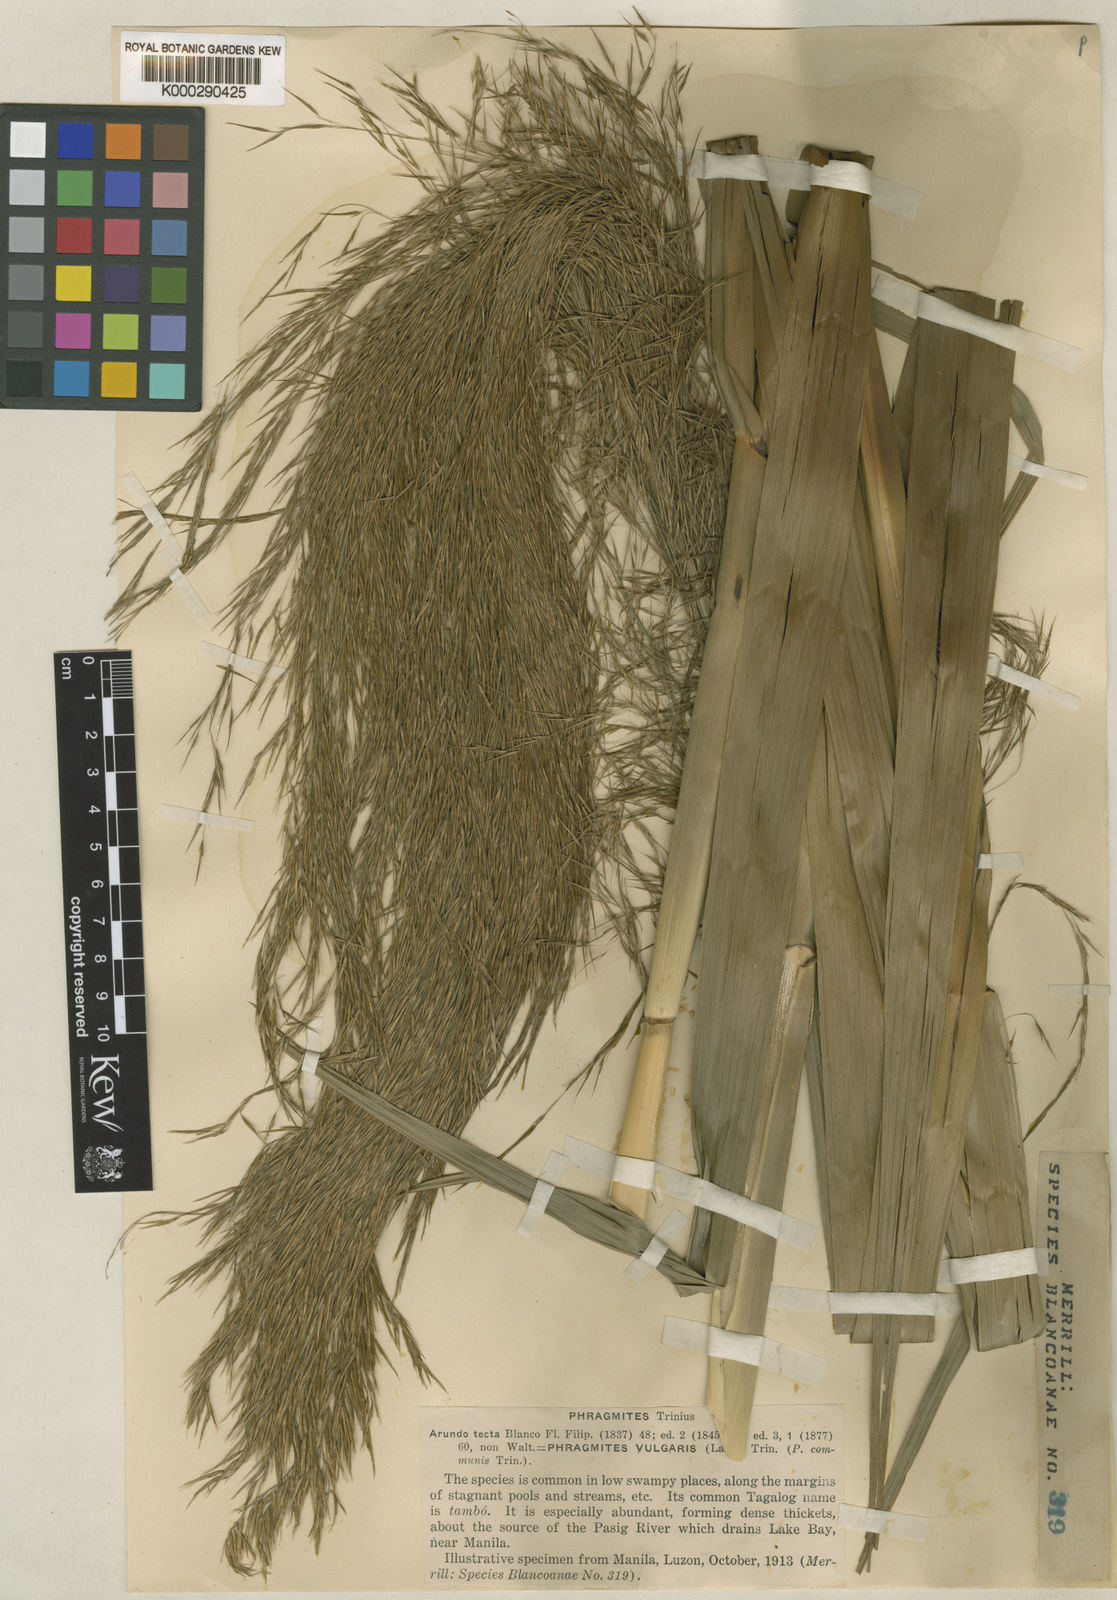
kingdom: Plantae
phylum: Tracheophyta
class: Liliopsida
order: Poales
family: Poaceae
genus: Phragmites
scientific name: Phragmites karka
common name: Tropical reed
